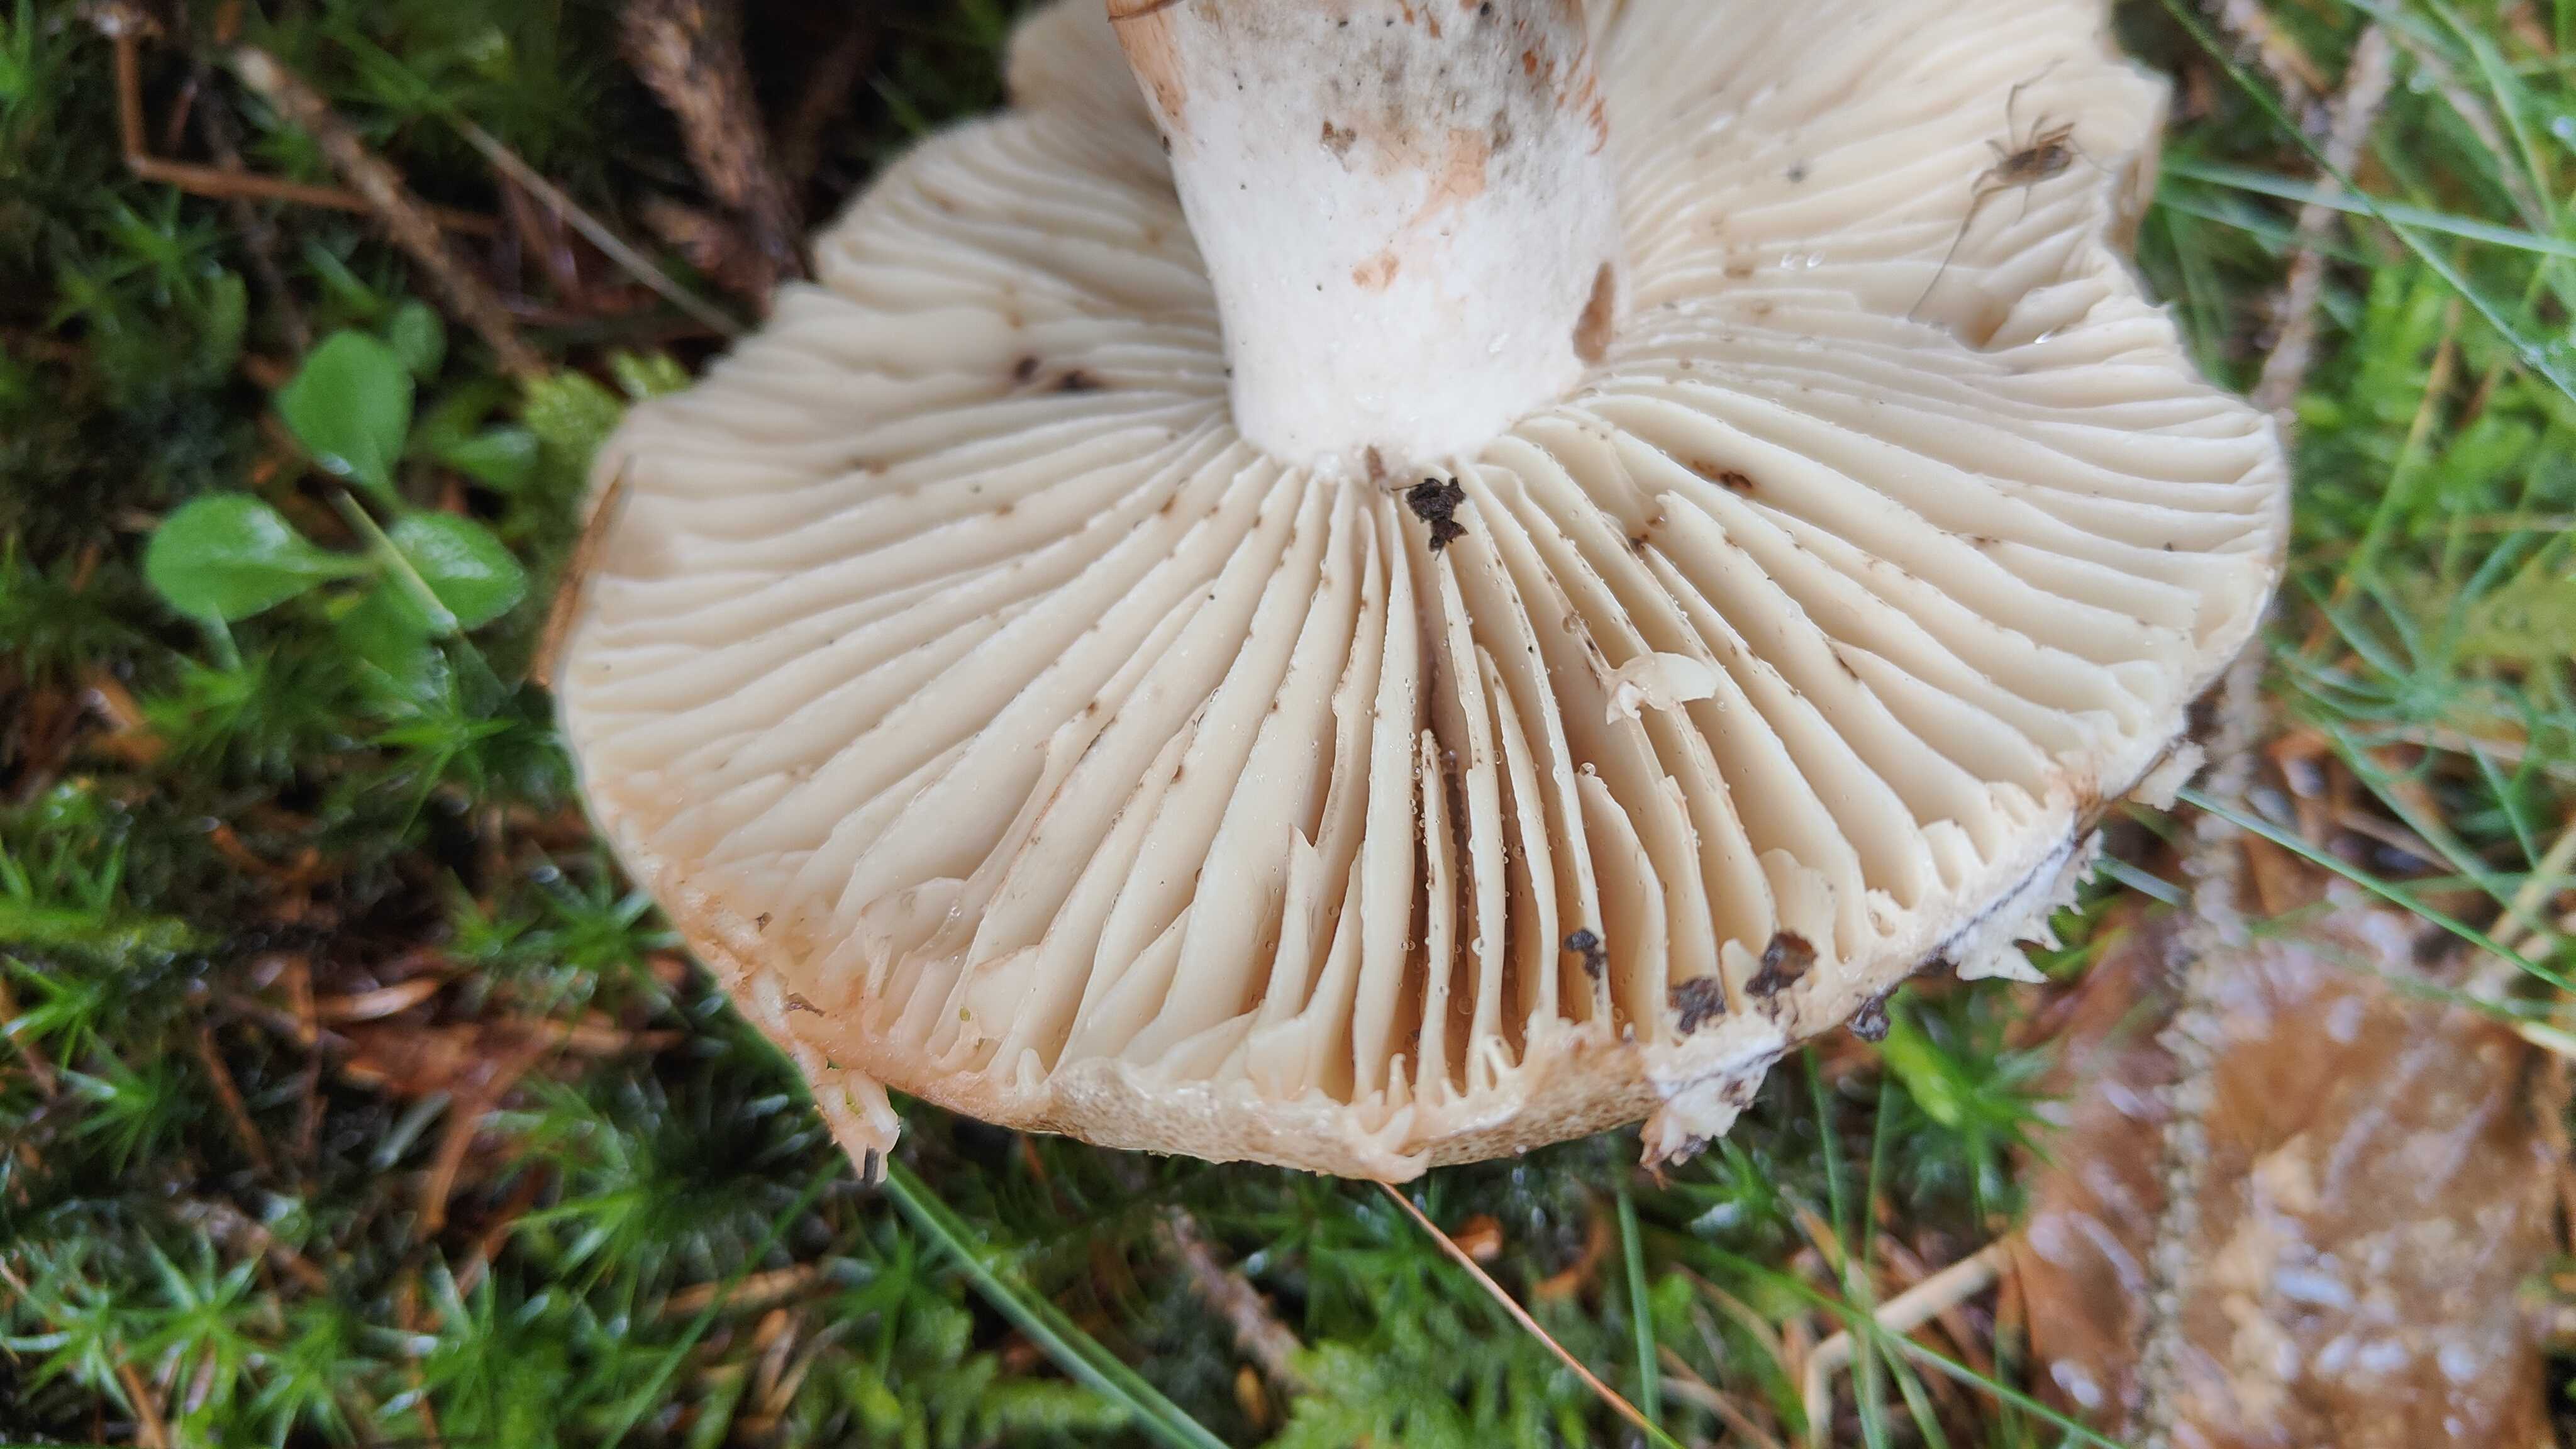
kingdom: Fungi
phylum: Basidiomycota
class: Agaricomycetes
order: Russulales
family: Russulaceae
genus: Russula
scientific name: Russula adusta
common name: sværtende skørhat
